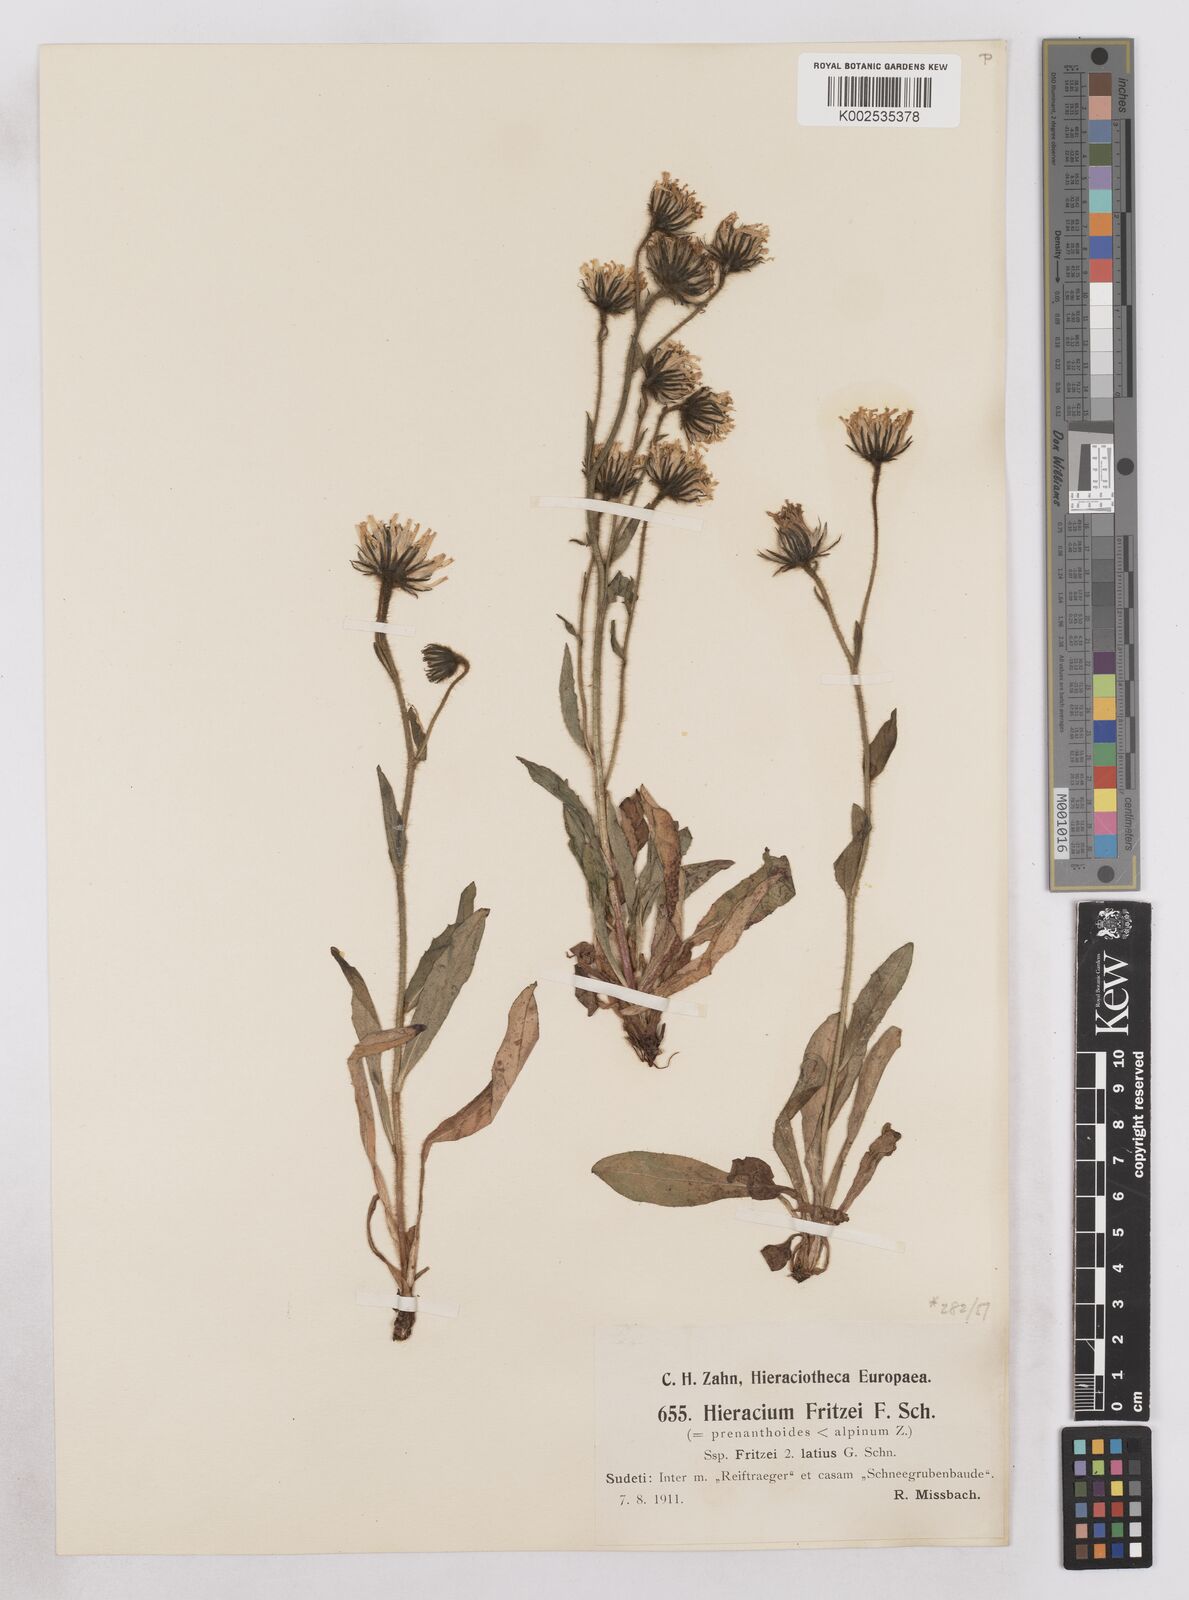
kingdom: Plantae
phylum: Tracheophyta
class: Magnoliopsida
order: Asterales
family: Asteraceae
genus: Hieracium
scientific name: Hieracium fritzei
